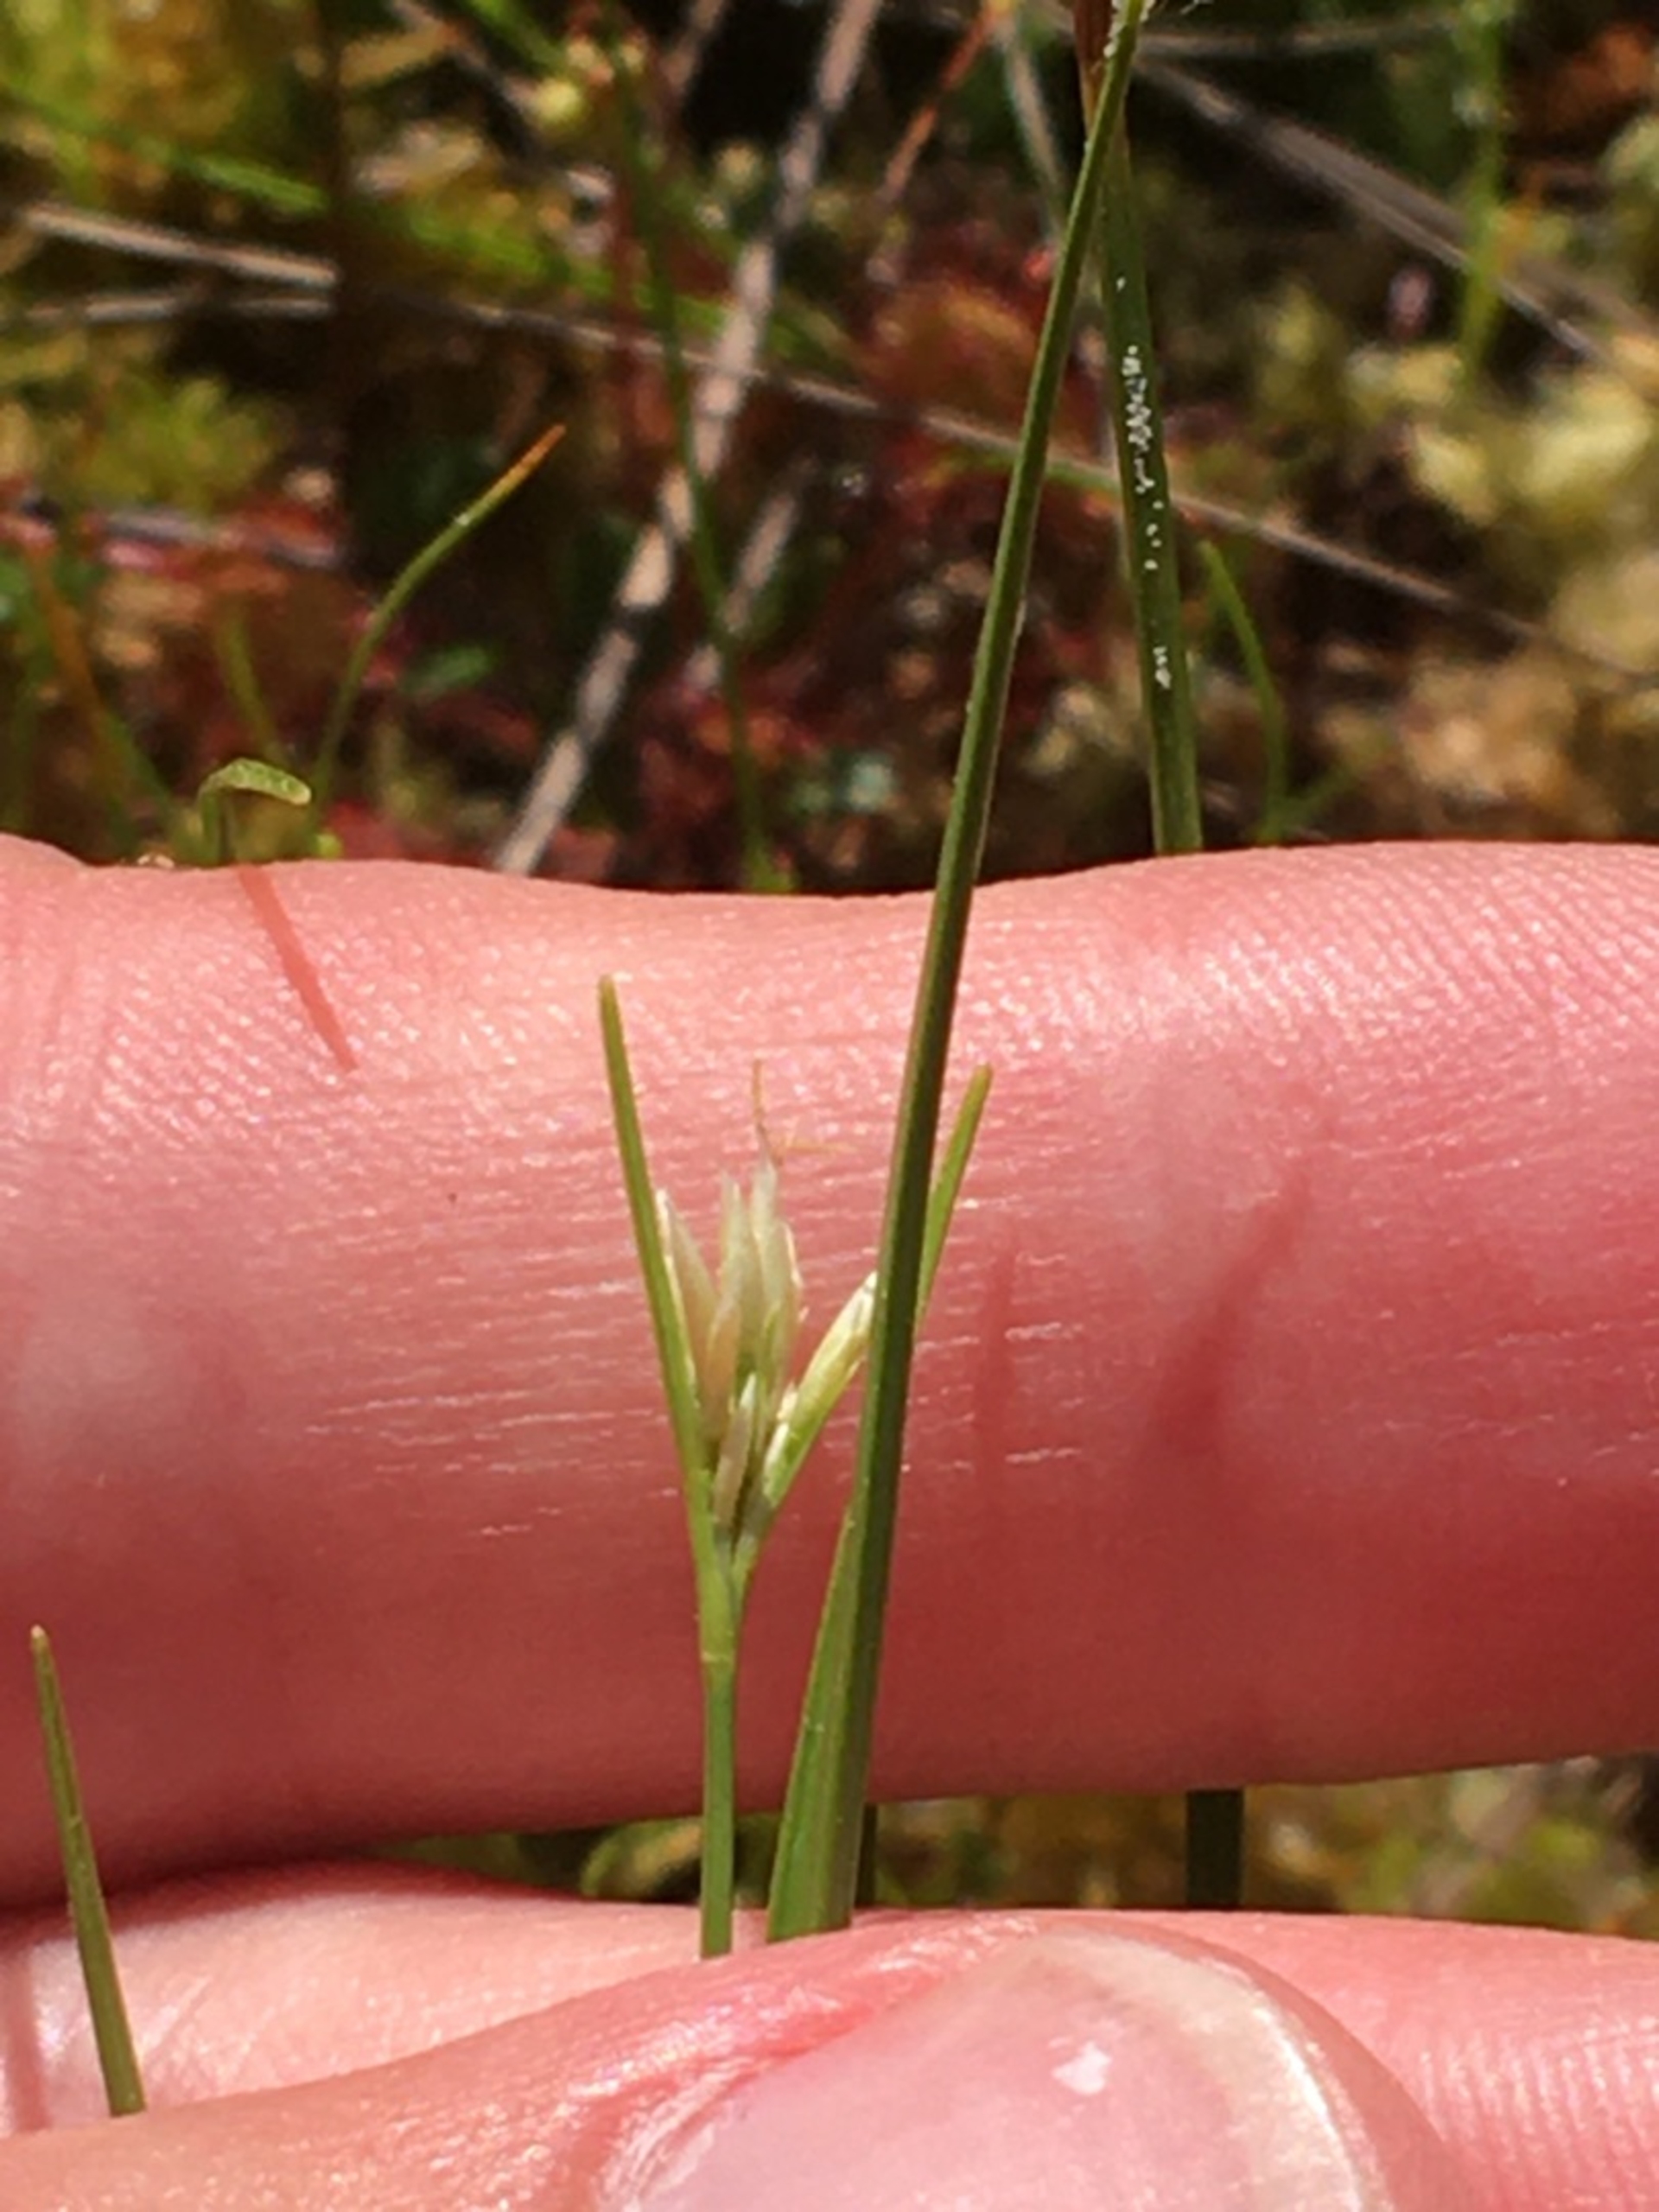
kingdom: Plantae
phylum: Tracheophyta
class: Liliopsida
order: Poales
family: Cyperaceae
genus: Rhynchospora
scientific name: Rhynchospora alba
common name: Hvid næbfrø
